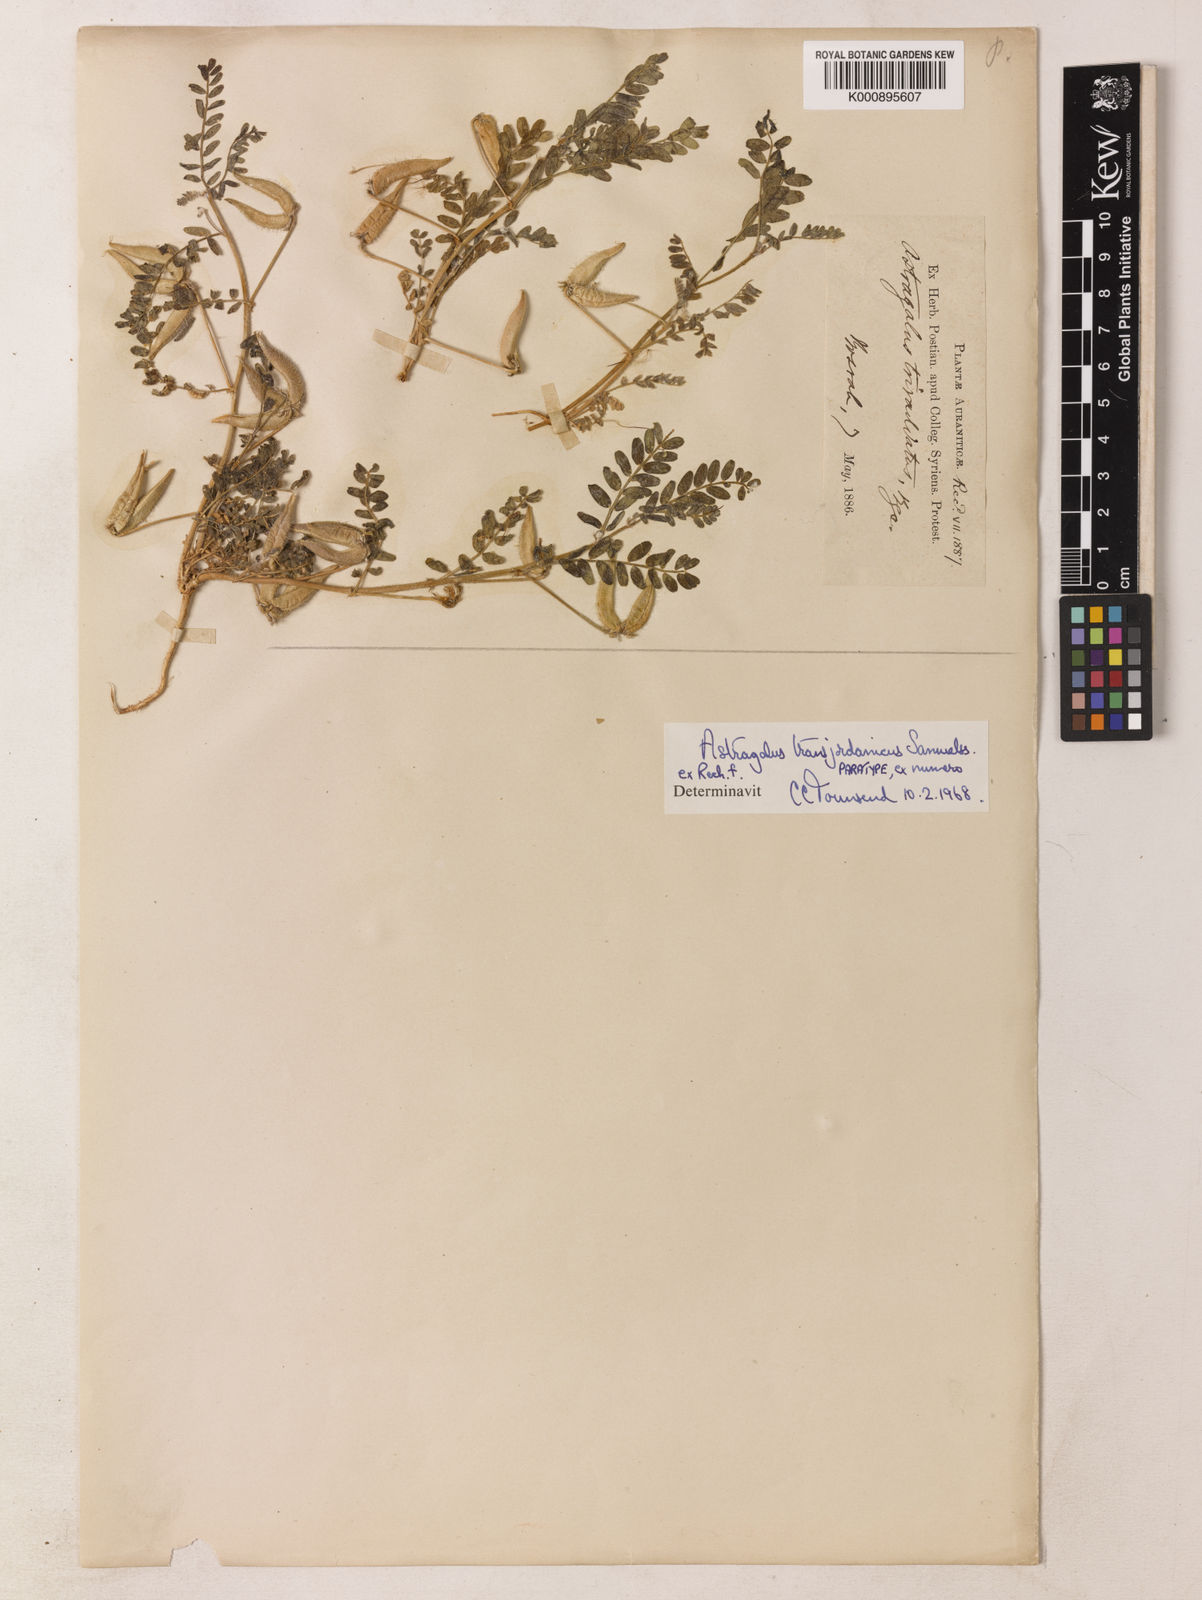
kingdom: Plantae
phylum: Tracheophyta
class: Magnoliopsida
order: Fabales
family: Fabaceae
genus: Astragalus
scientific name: Astragalus transjordanicus
